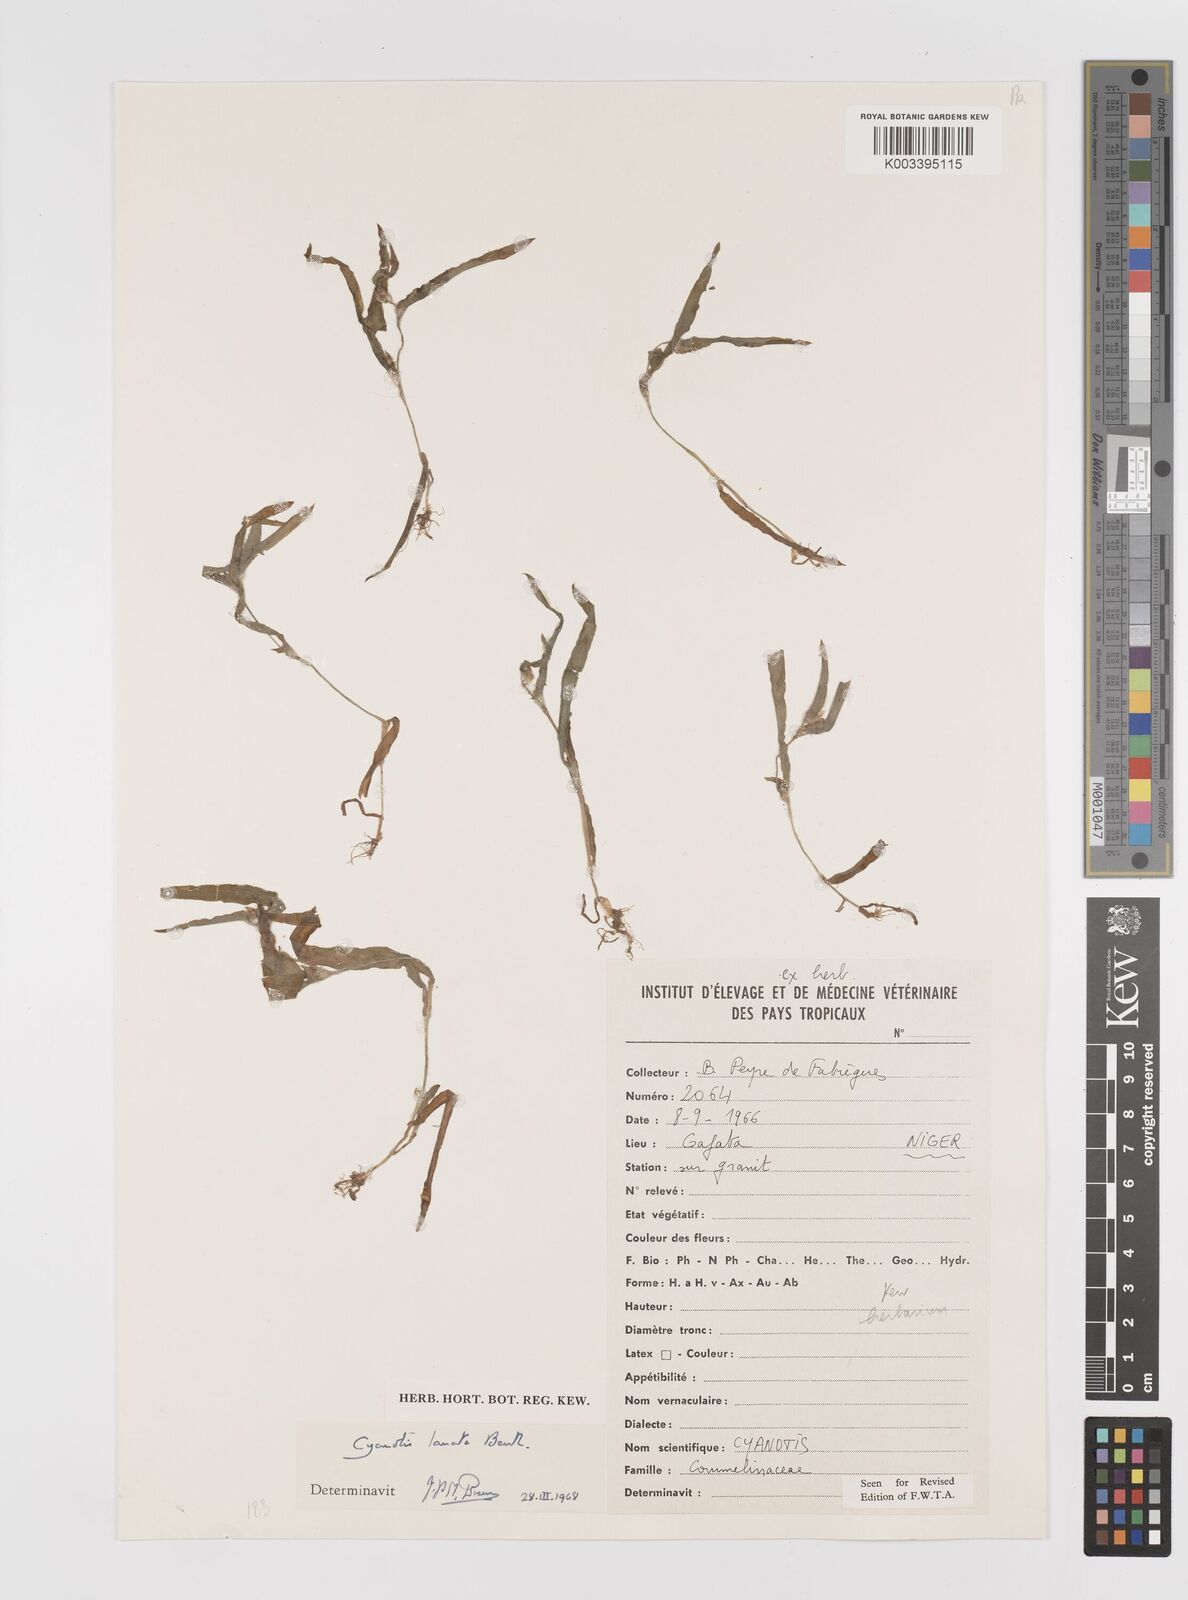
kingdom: Plantae
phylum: Tracheophyta
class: Liliopsida
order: Commelinales
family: Commelinaceae
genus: Cyanotis
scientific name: Cyanotis lanata
